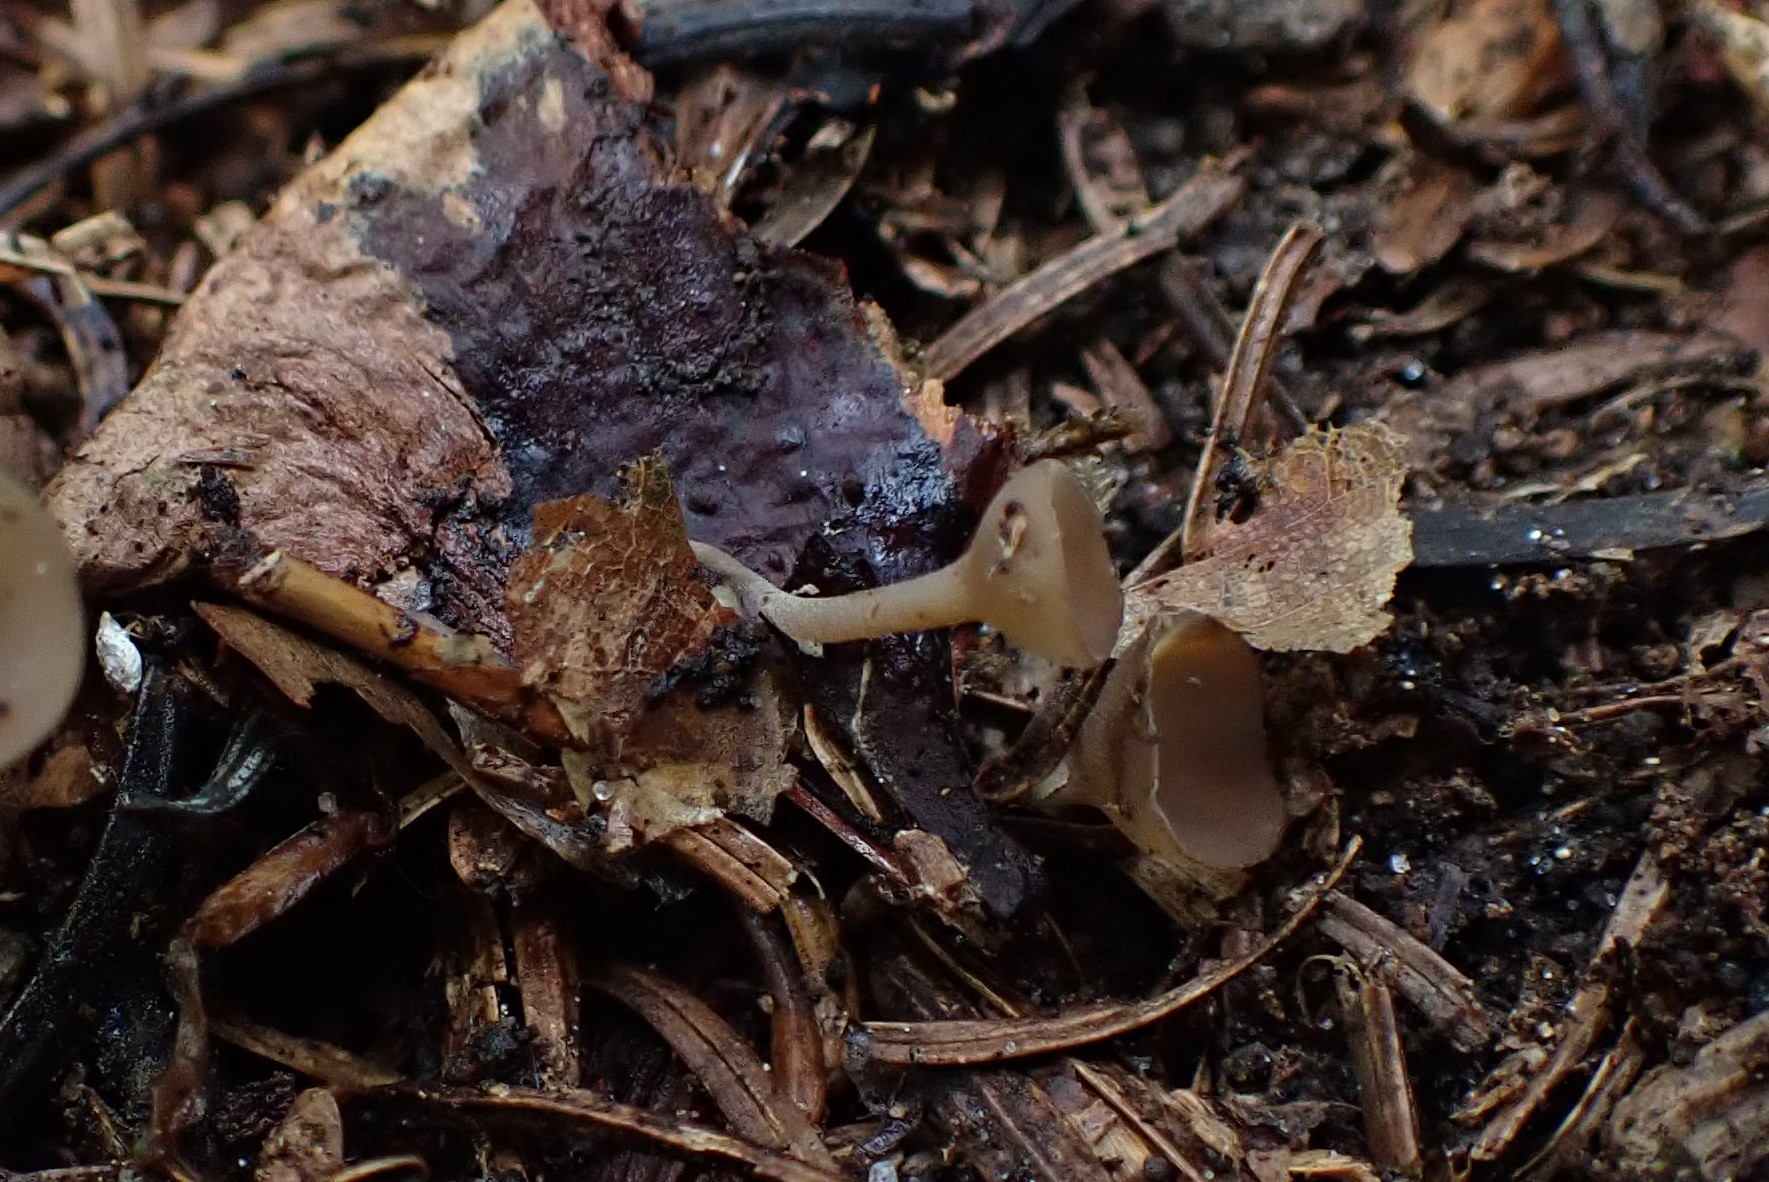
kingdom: Fungi
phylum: Ascomycota
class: Leotiomycetes
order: Helotiales
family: Sclerotiniaceae
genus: Ciboria
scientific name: Ciboria rufofusca
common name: kogleskæl-knoldskive
